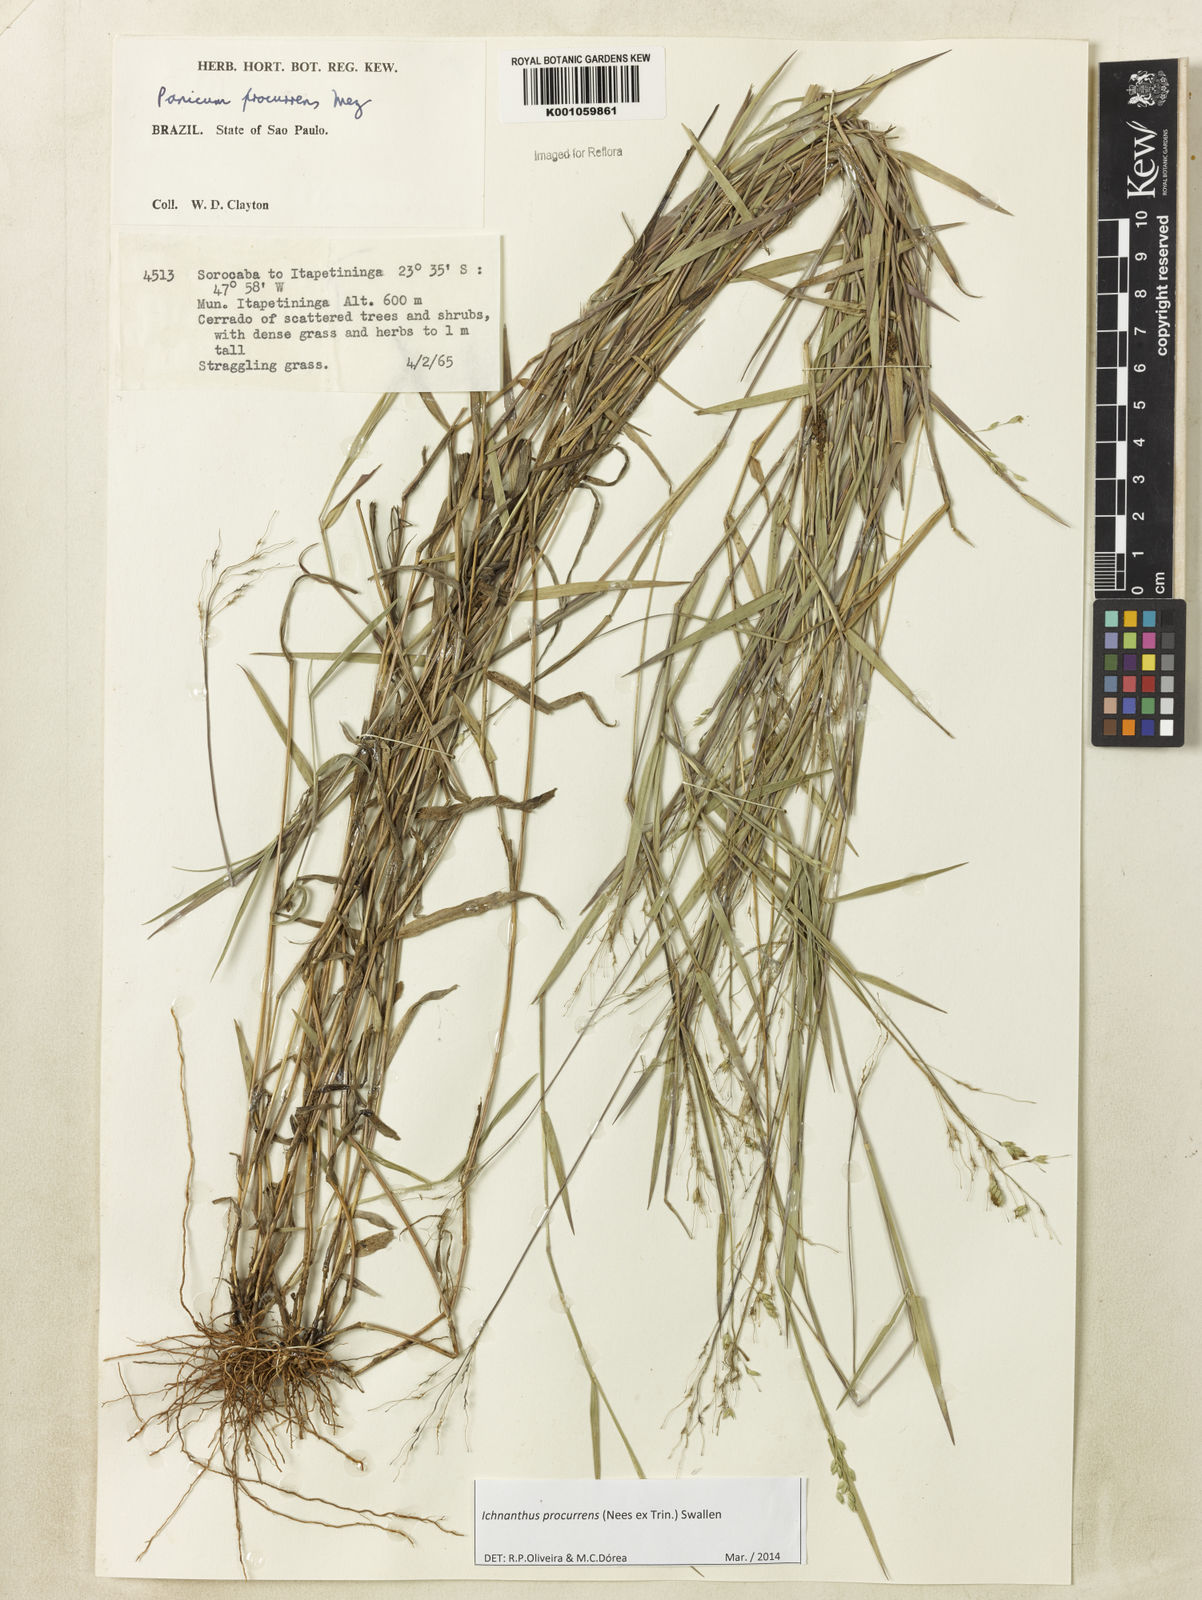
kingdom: Plantae
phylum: Tracheophyta
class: Liliopsida
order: Poales
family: Poaceae
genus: Oedochloa
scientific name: Oedochloa procurrens
